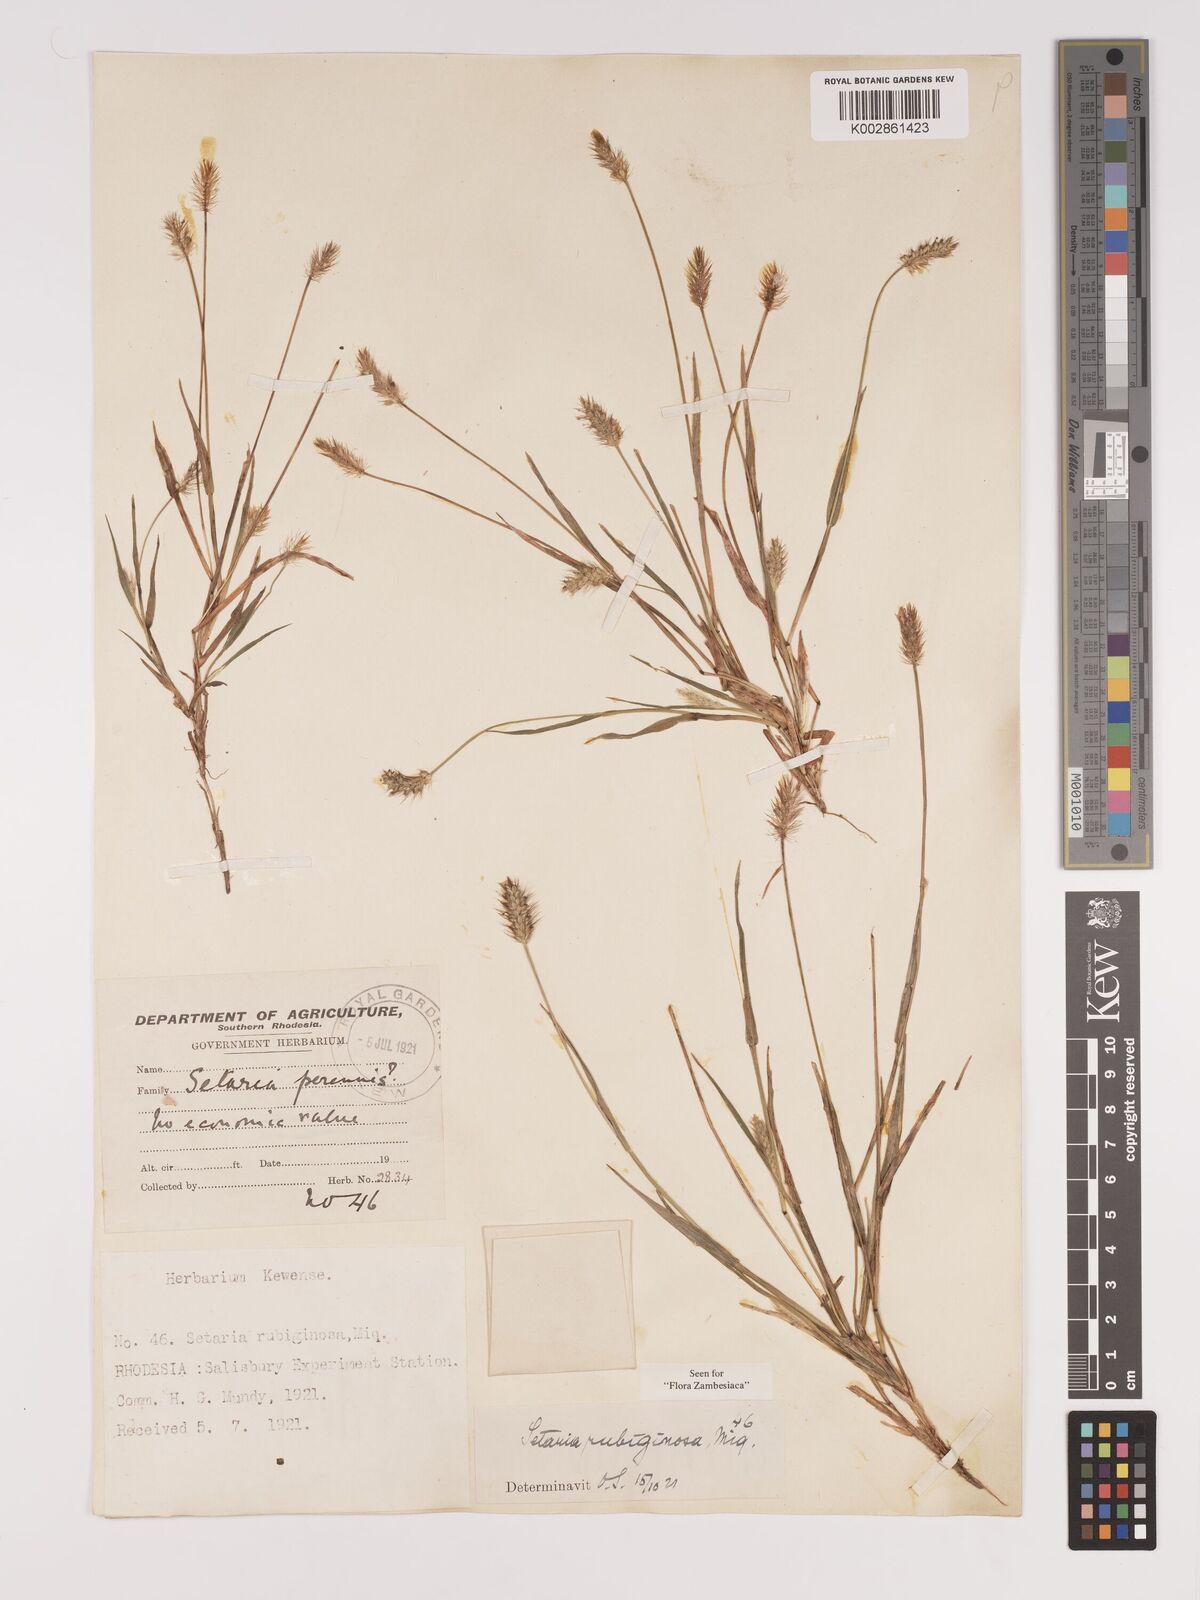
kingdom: Plantae
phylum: Tracheophyta
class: Liliopsida
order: Poales
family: Poaceae
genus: Setaria
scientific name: Setaria pumila
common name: Yellow bristle-grass
